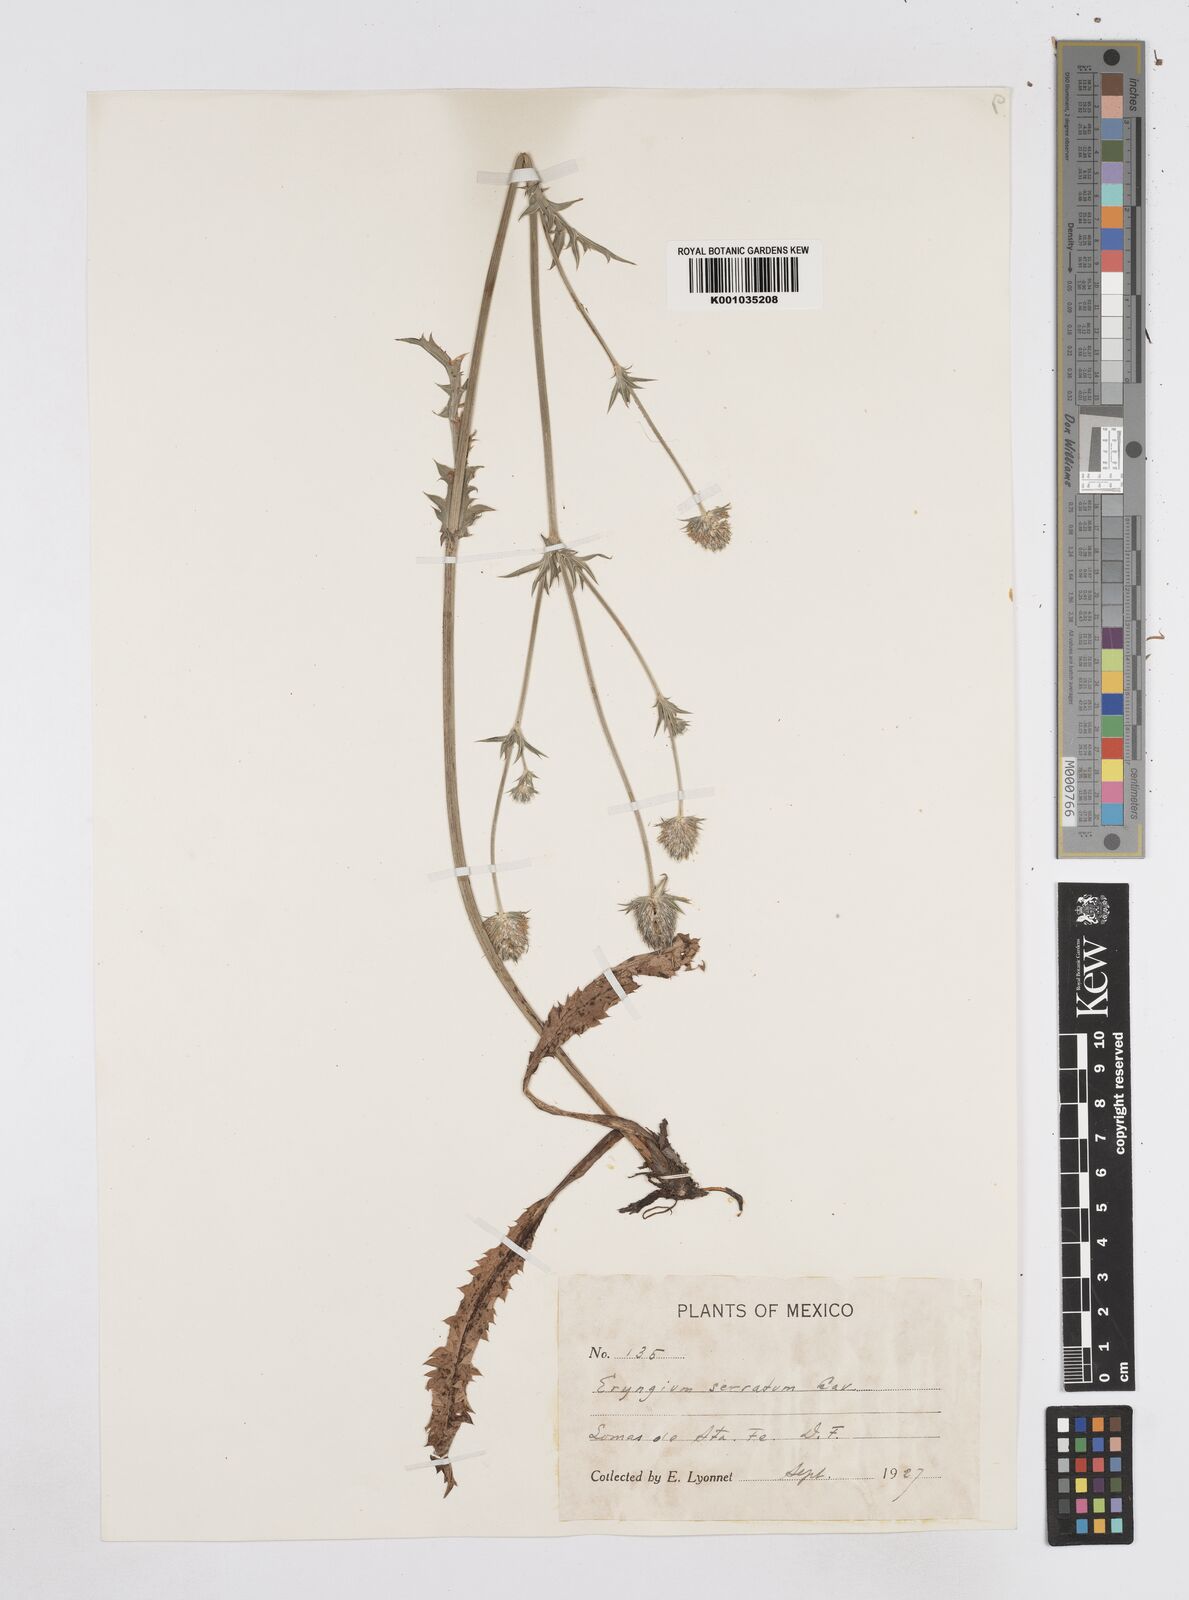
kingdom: Plantae
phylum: Tracheophyta
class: Magnoliopsida
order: Apiales
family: Apiaceae
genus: Eryngium
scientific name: Eryngium serratum
